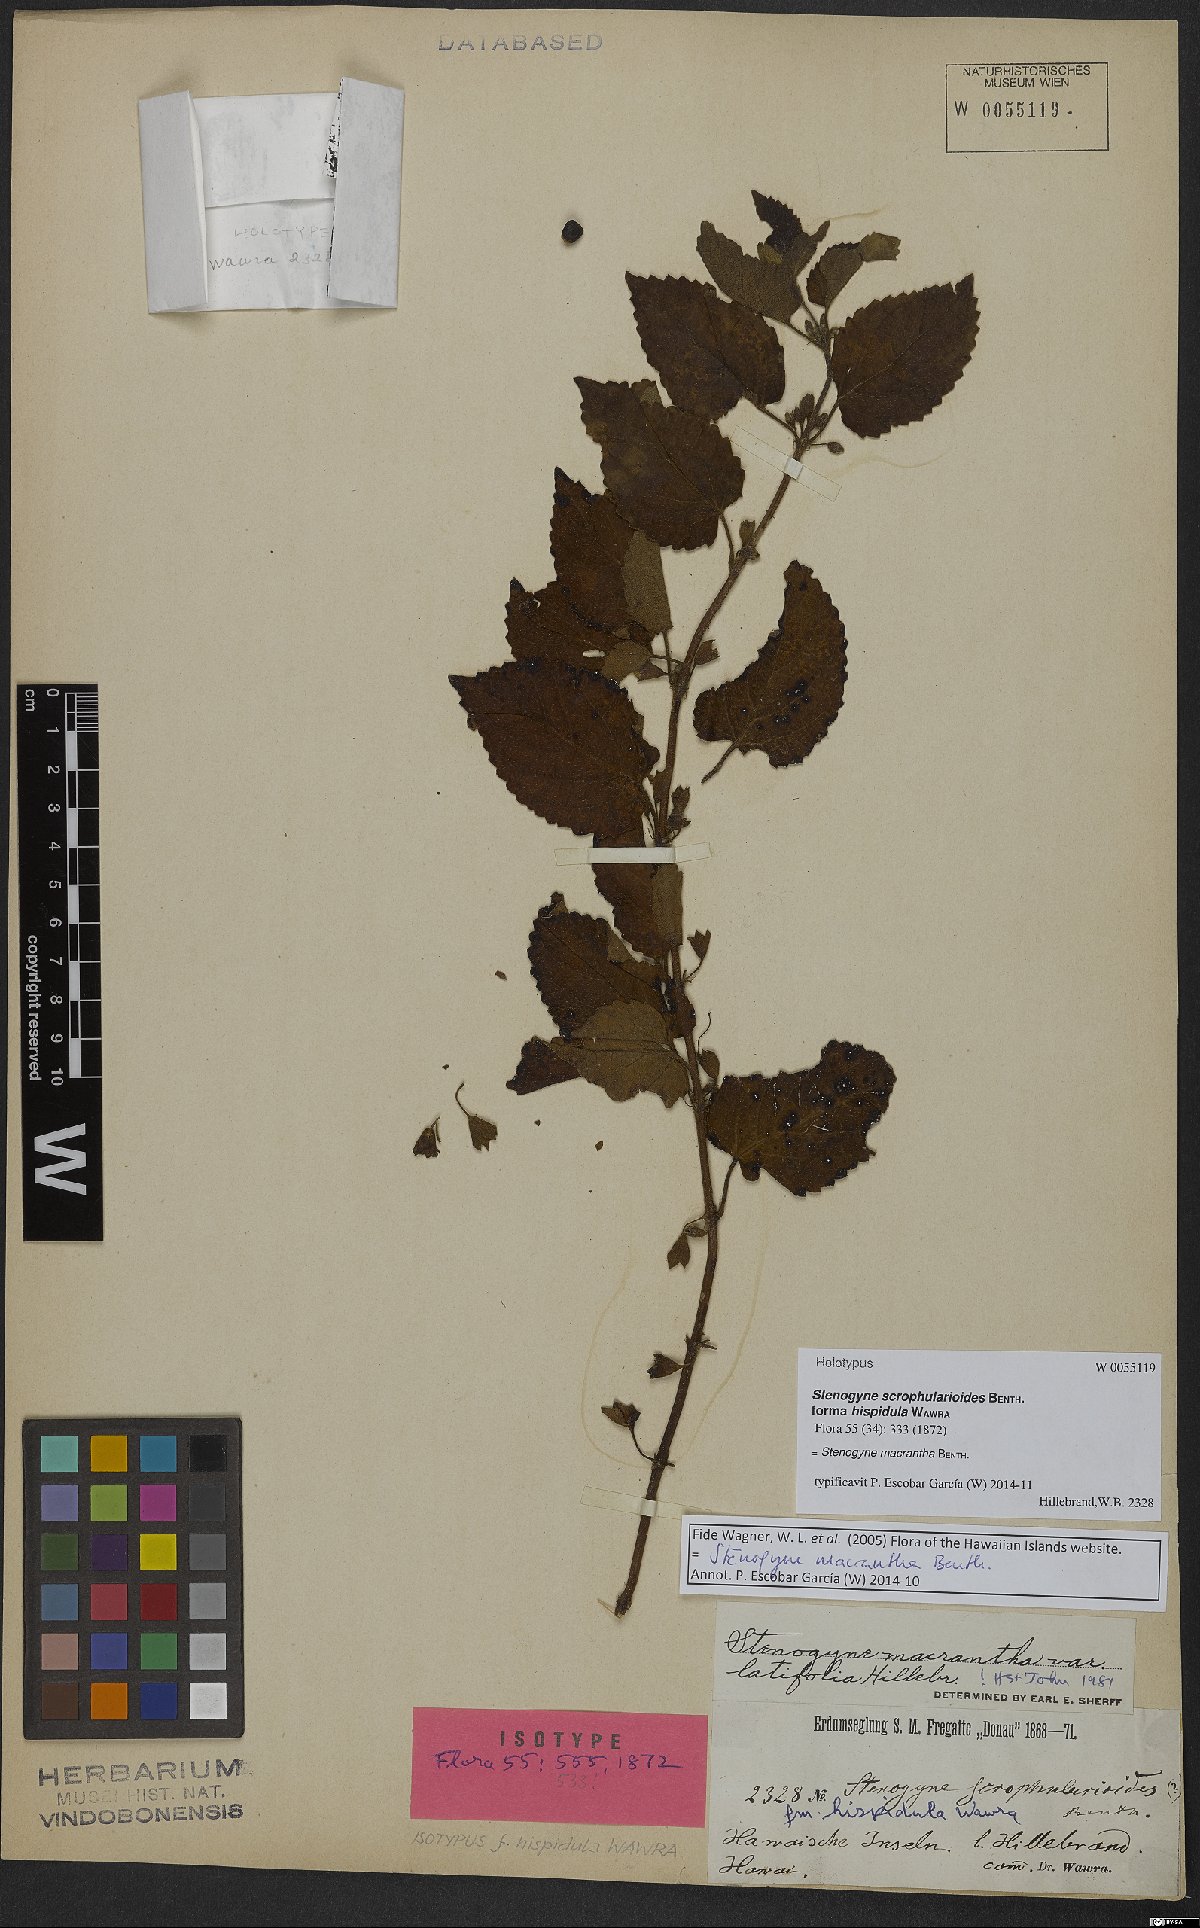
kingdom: Plantae
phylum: Tracheophyta
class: Magnoliopsida
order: Lamiales
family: Lamiaceae
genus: Stenogyne
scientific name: Stenogyne macrantha
